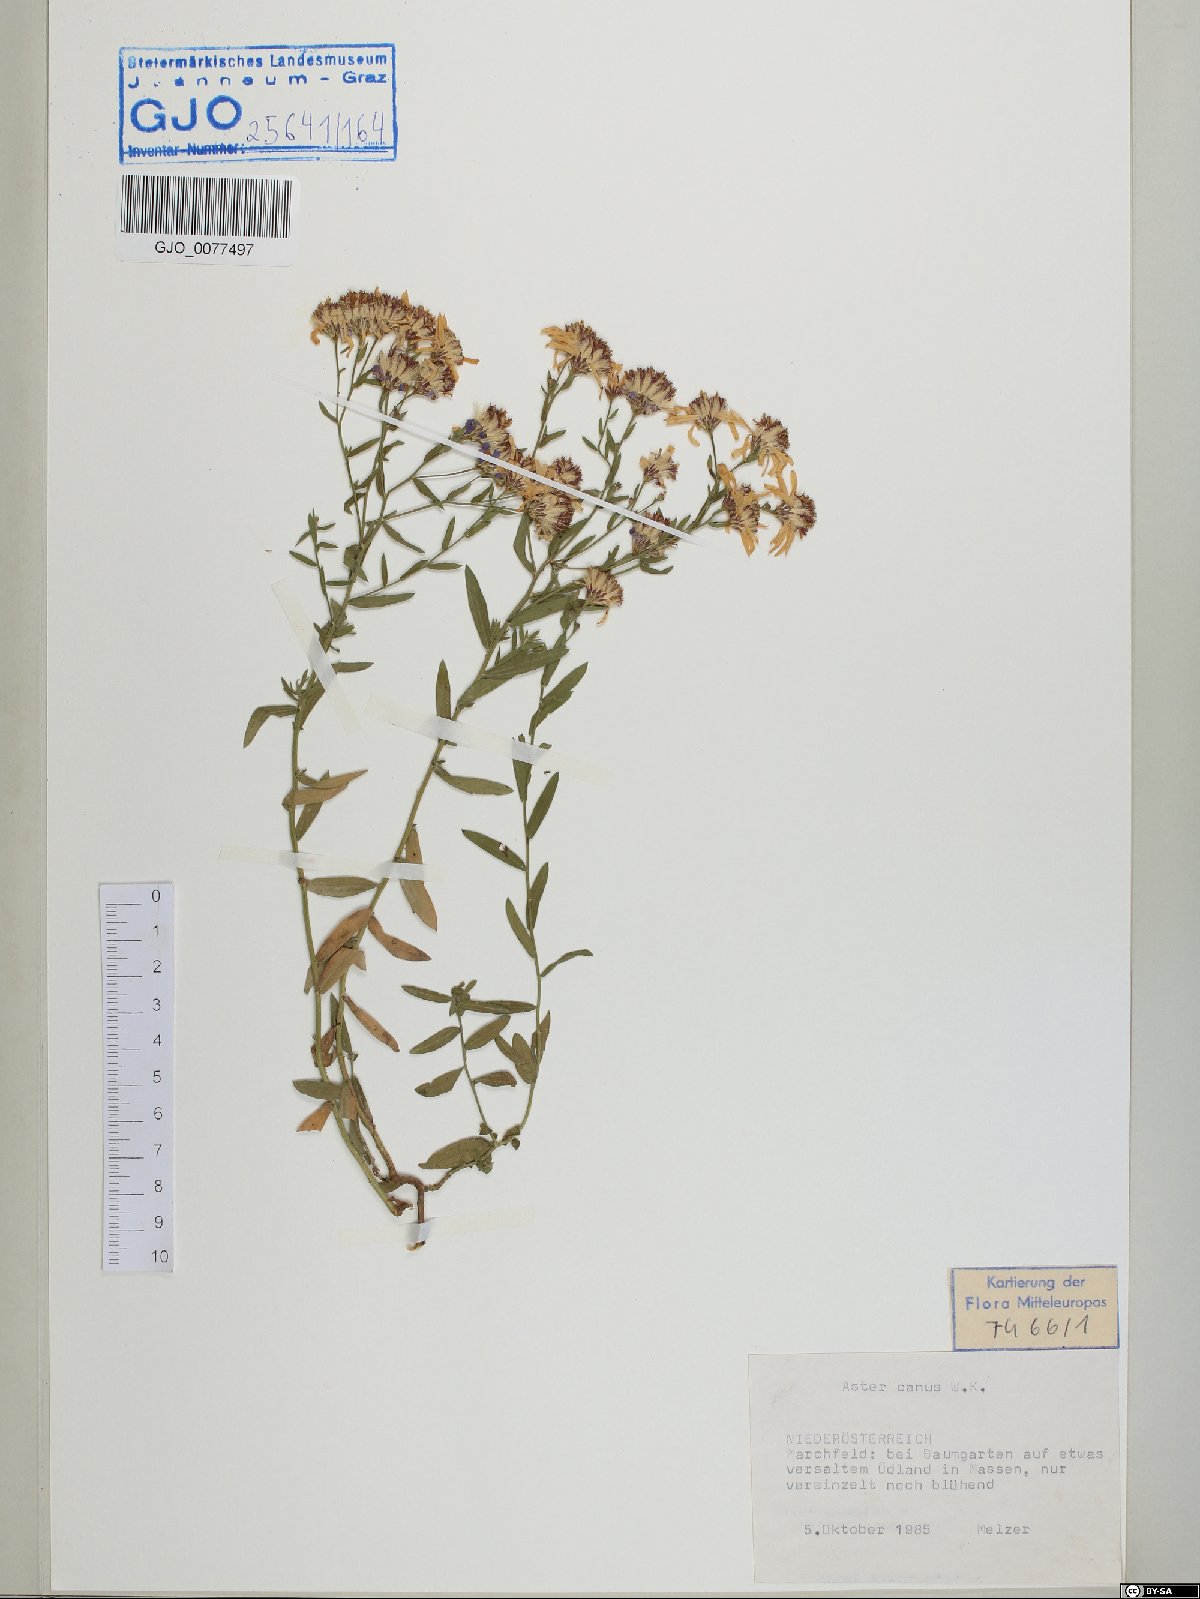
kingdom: Plantae
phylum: Tracheophyta
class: Magnoliopsida
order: Asterales
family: Asteraceae
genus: Galatella
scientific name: Galatella cana
